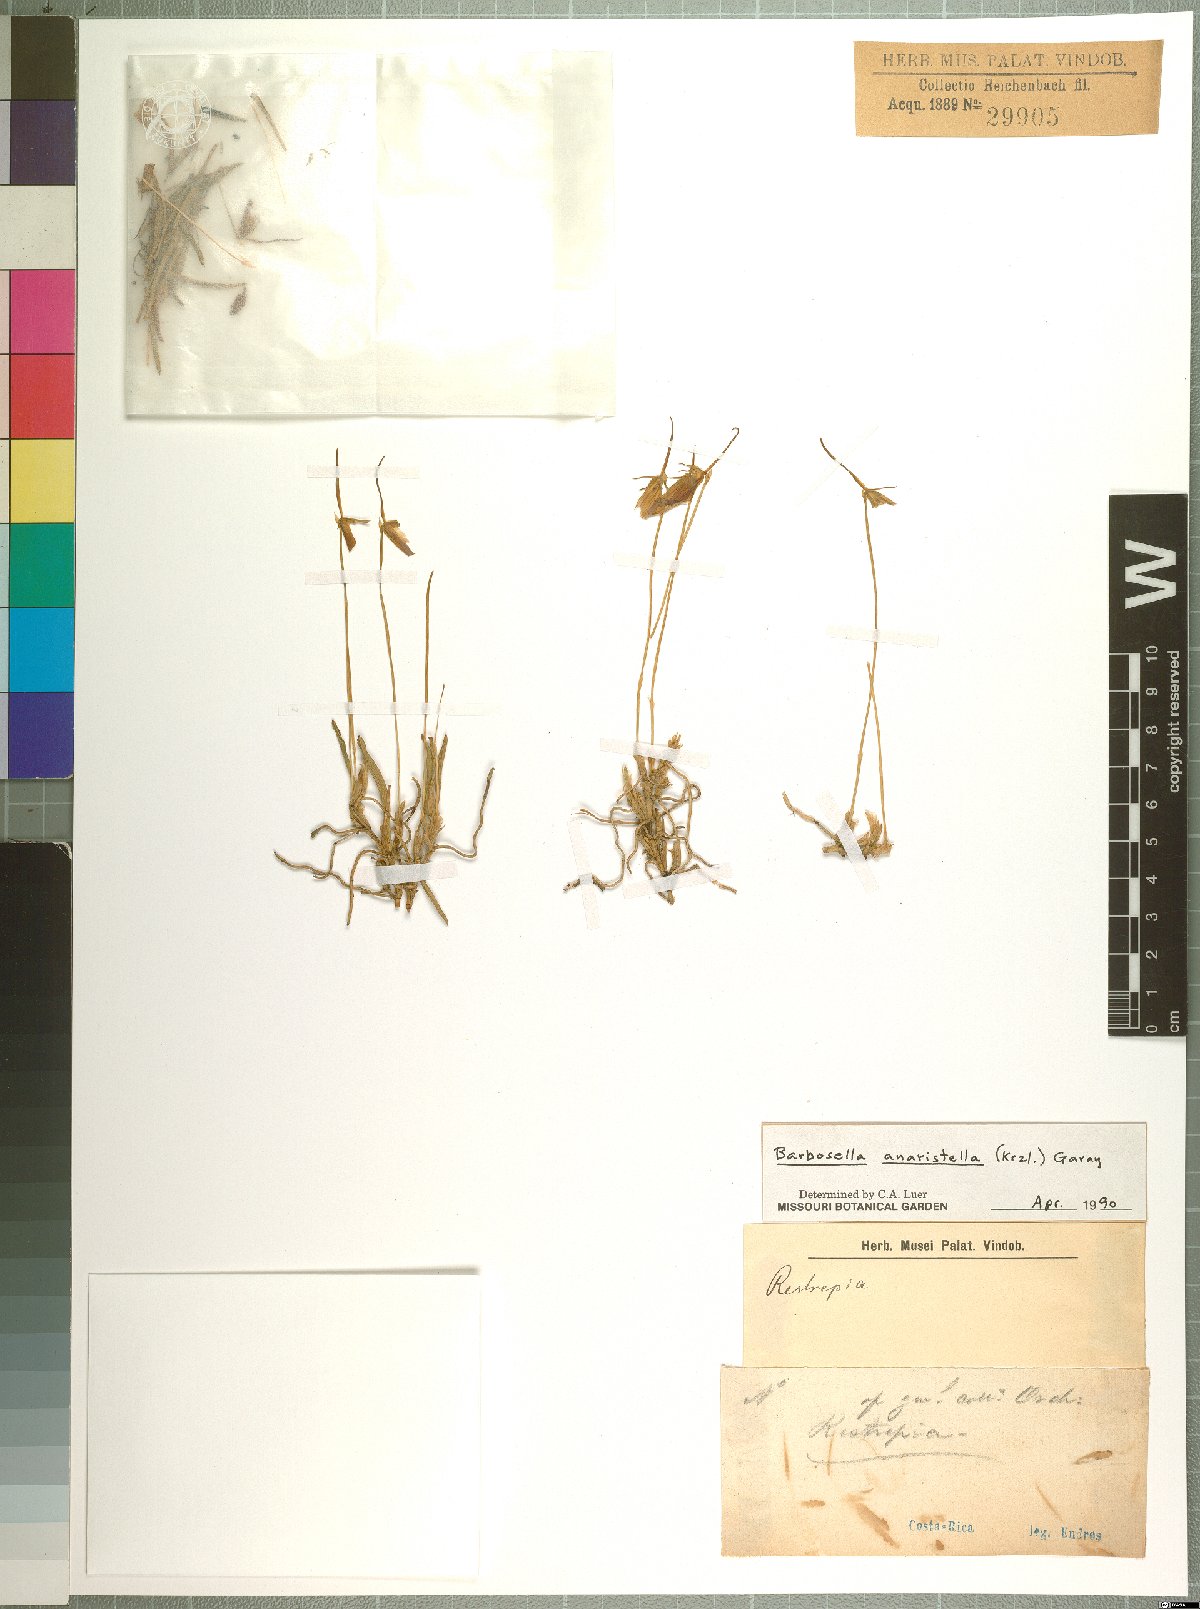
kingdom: Plantae
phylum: Tracheophyta
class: Liliopsida
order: Asparagales
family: Orchidaceae
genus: Barbosella
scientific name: Barbosella dolichorhiza
